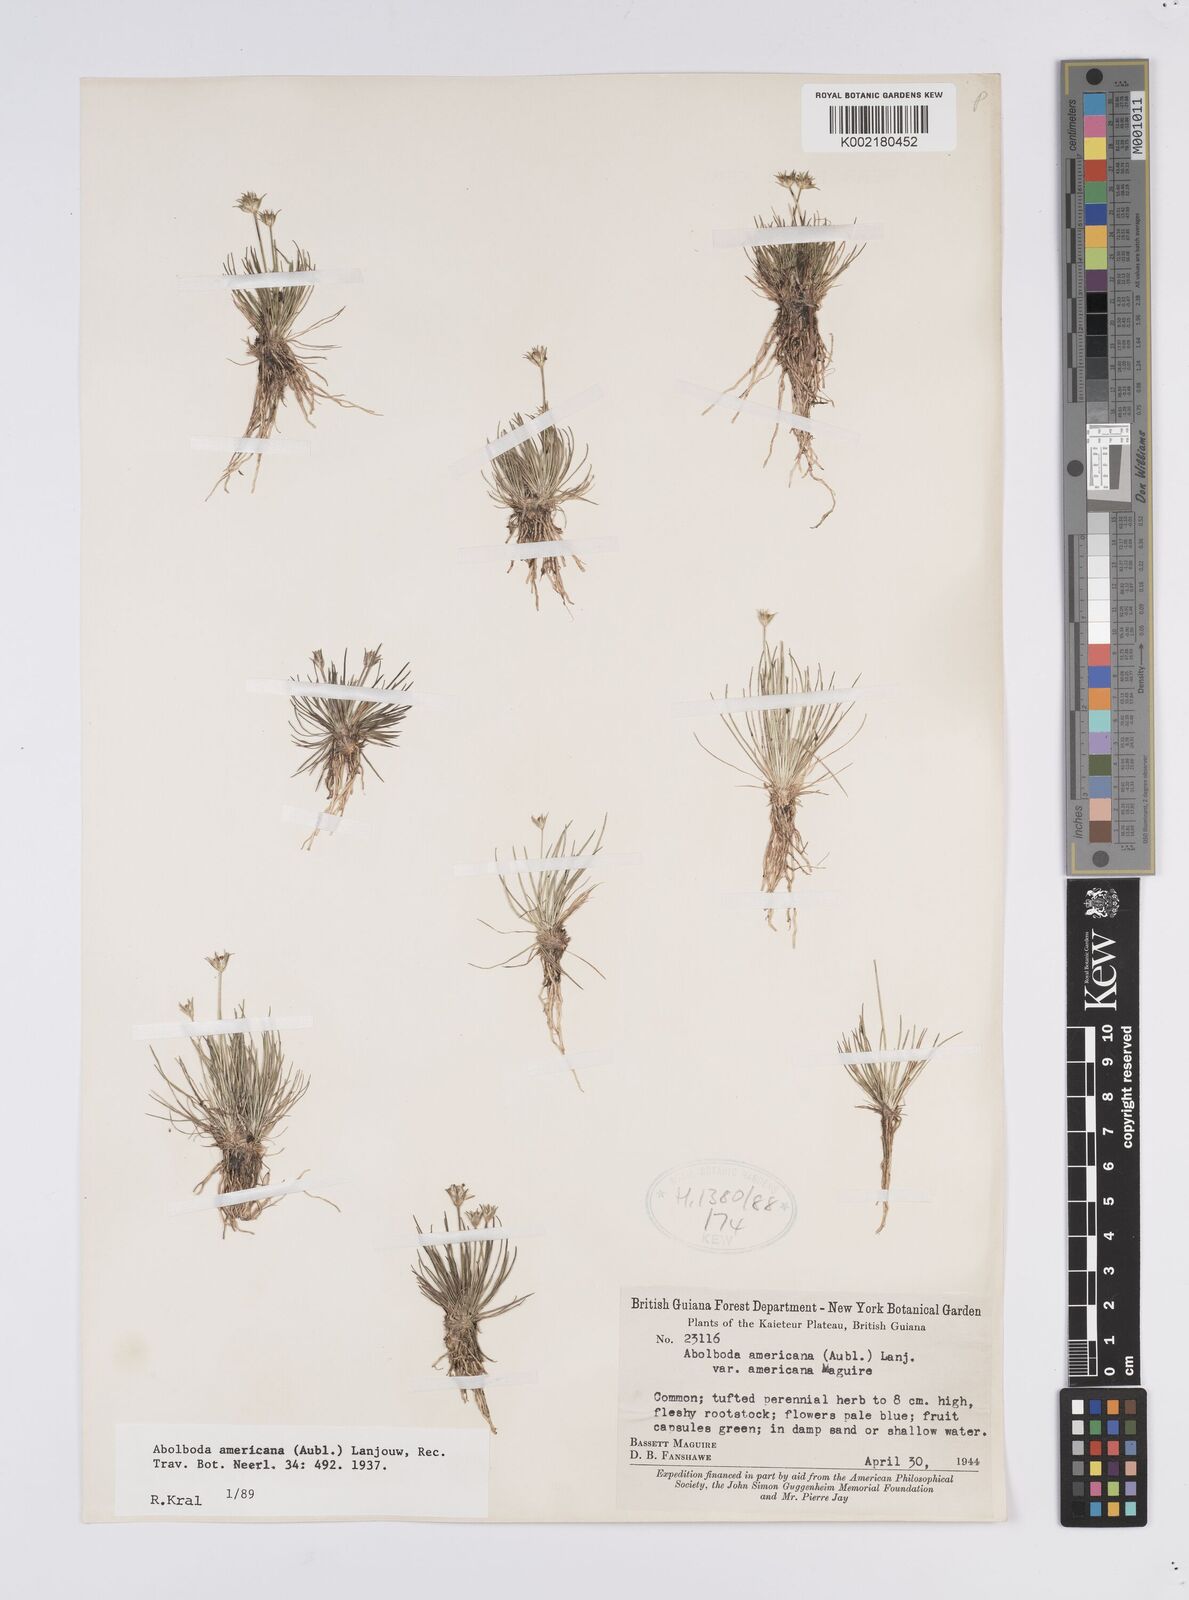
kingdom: Plantae
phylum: Tracheophyta
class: Liliopsida
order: Poales
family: Xyridaceae
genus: Abolboda
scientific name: Abolboda americana
